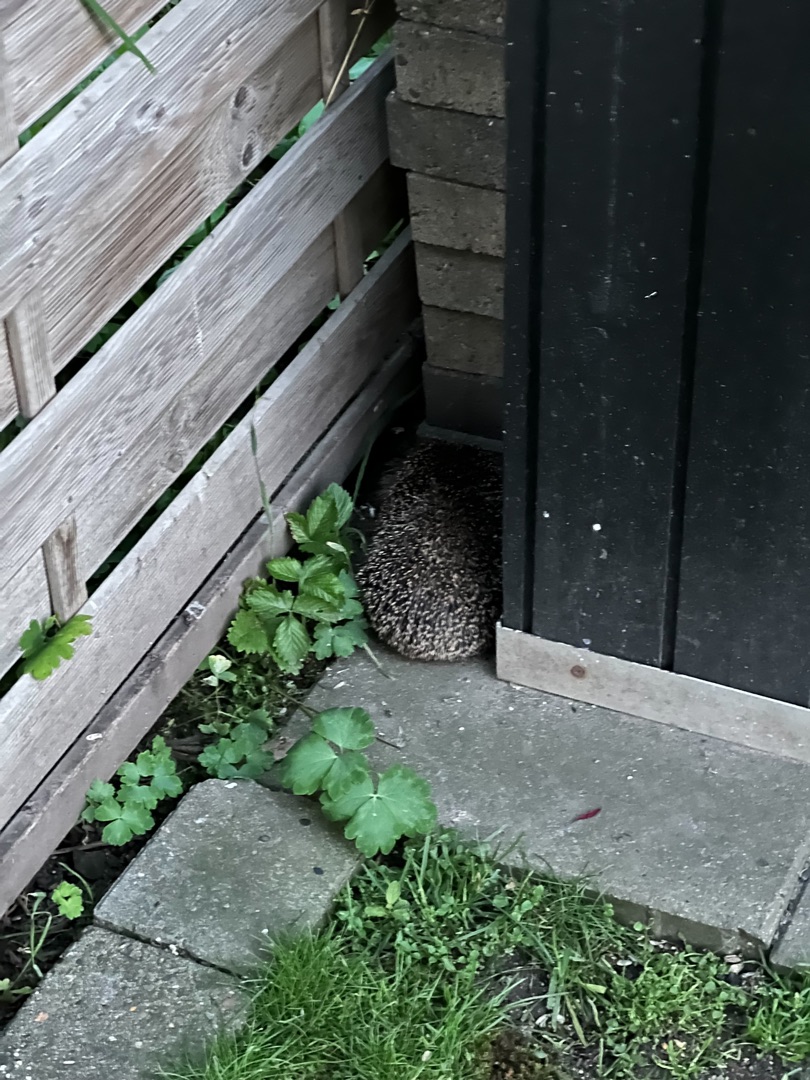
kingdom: Animalia
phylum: Chordata
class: Mammalia
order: Erinaceomorpha
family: Erinaceidae
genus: Erinaceus
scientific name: Erinaceus europaeus
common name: Pindsvin
